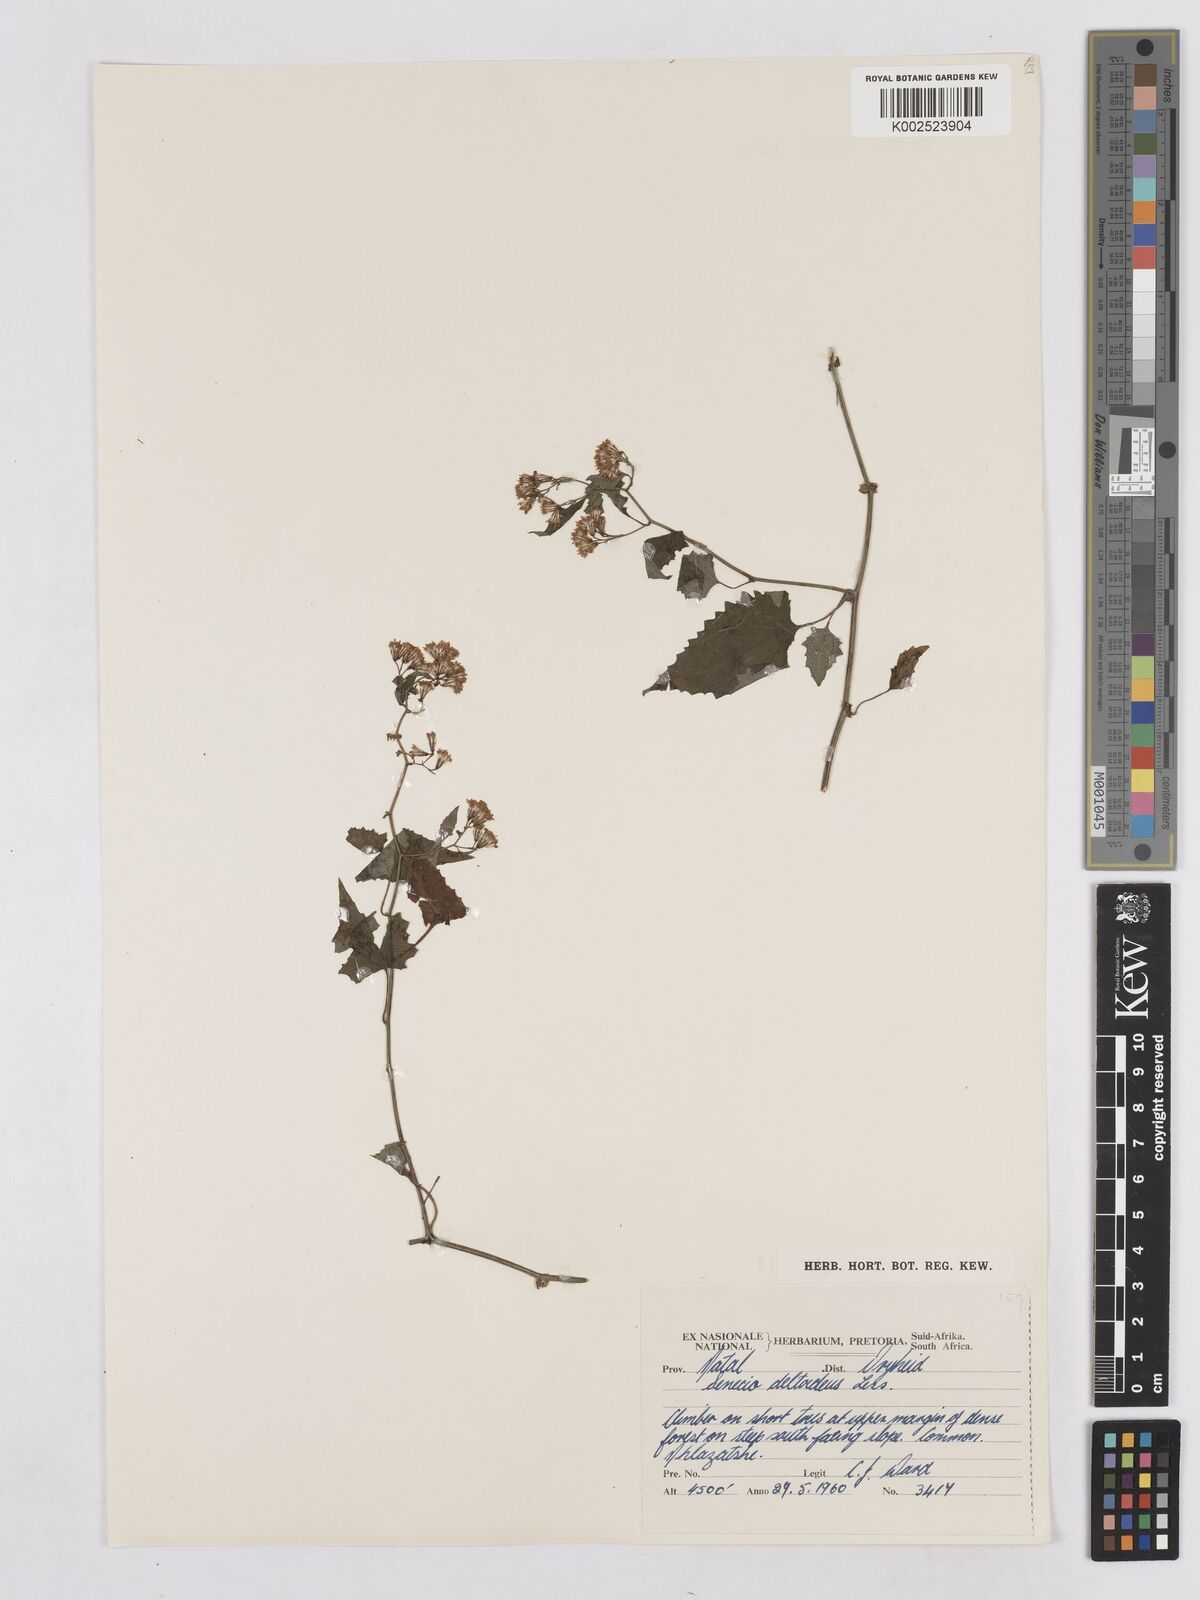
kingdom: Plantae
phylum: Tracheophyta
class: Magnoliopsida
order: Asterales
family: Asteraceae
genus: Senecio
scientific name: Senecio deltoideus
